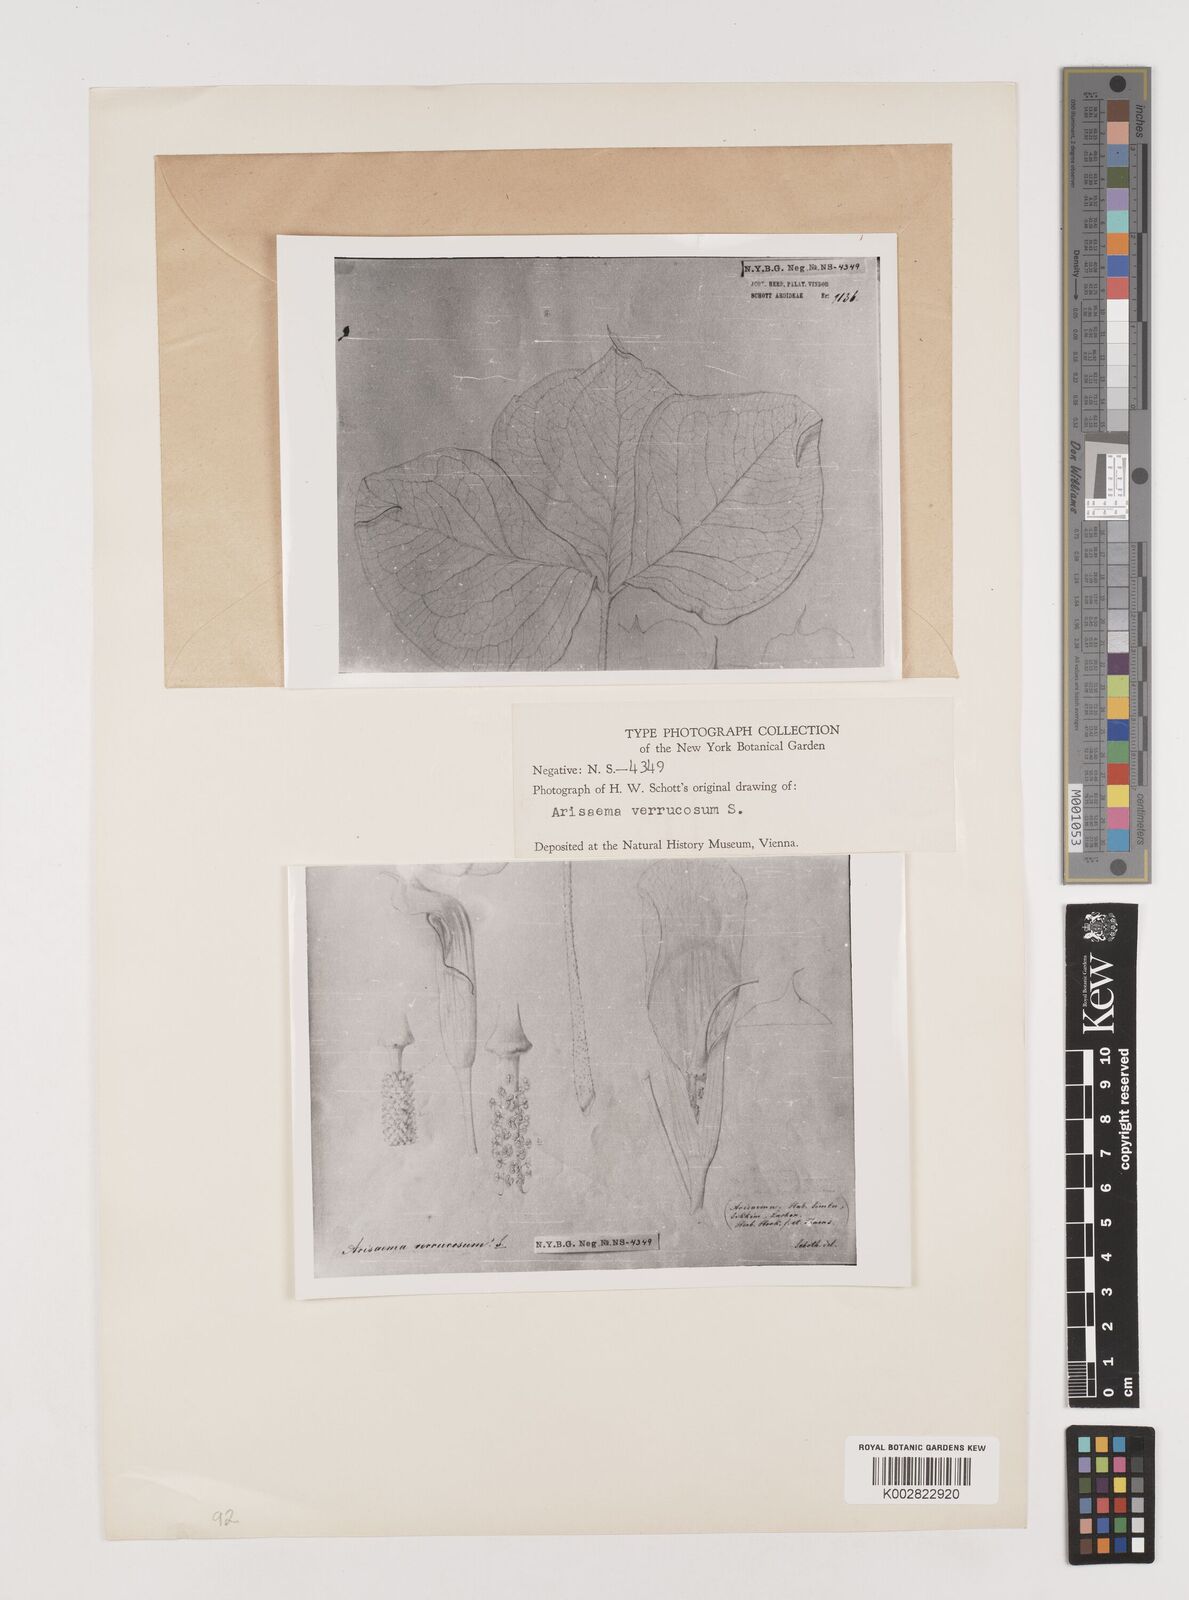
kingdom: Plantae
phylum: Tracheophyta
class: Liliopsida
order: Alismatales
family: Araceae
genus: Arisaema
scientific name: Arisaema griffithii
